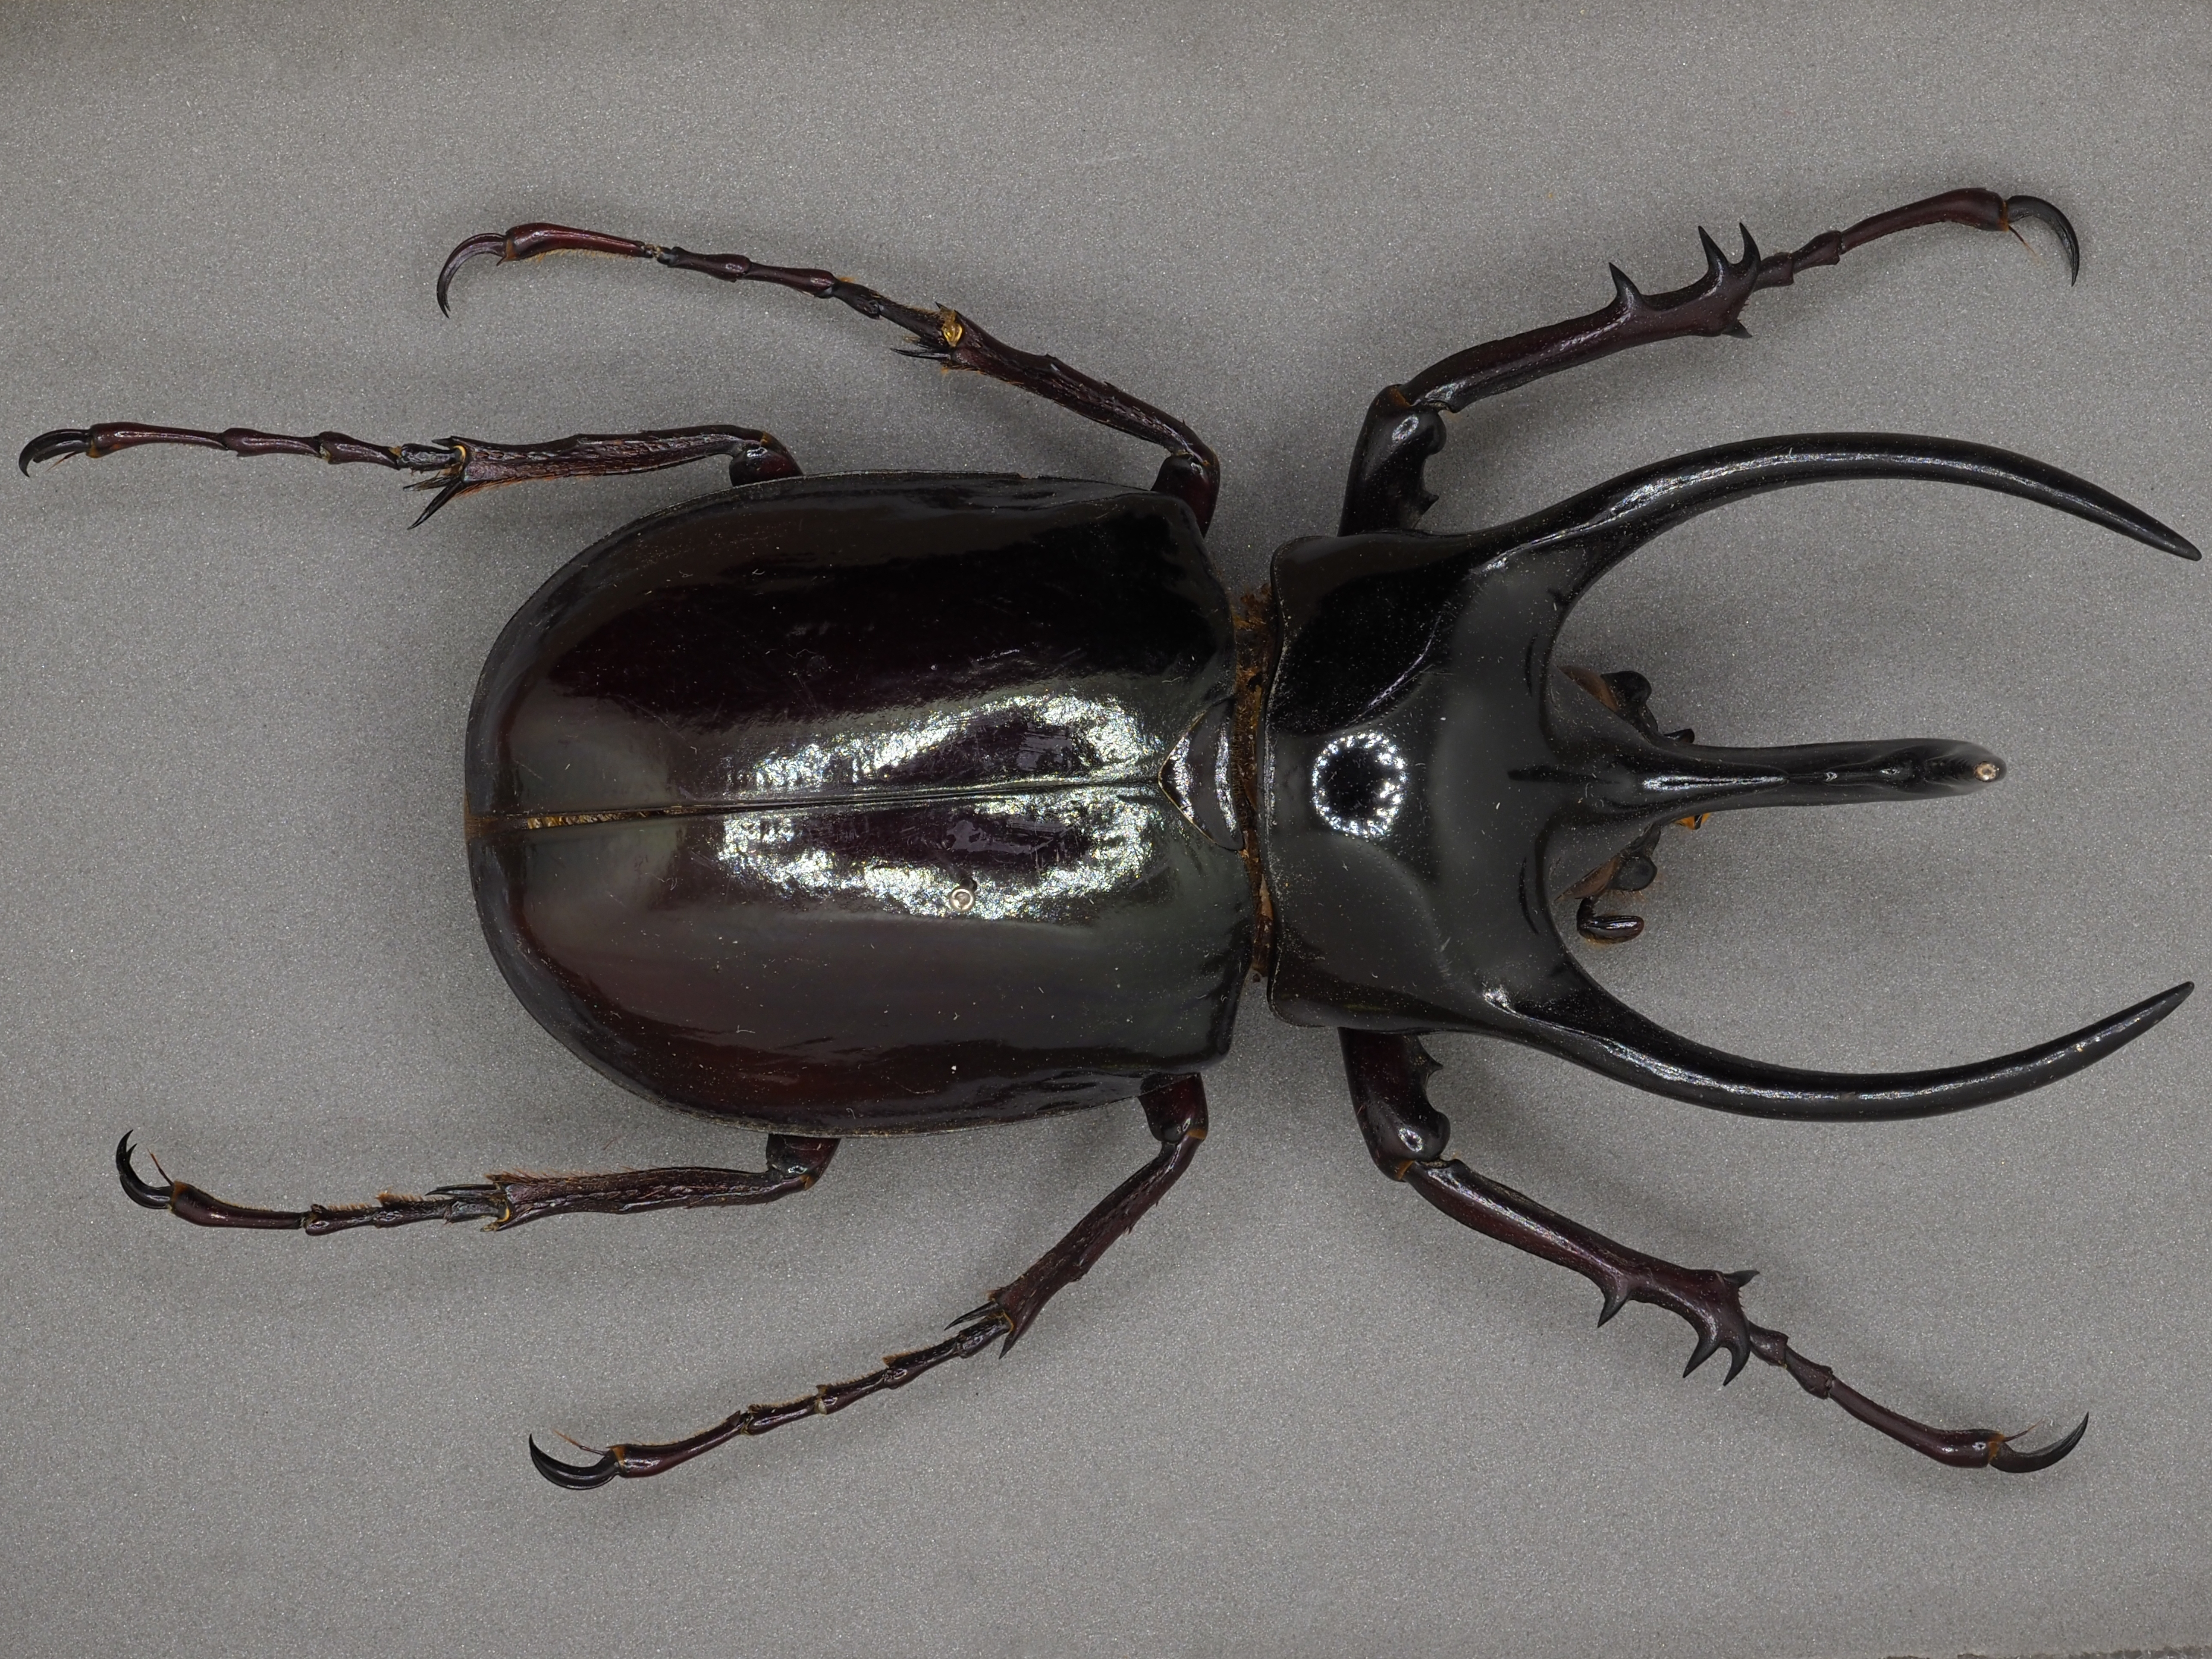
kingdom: Animalia
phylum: Arthropoda
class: Insecta
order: Coleoptera
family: Scarabaeidae
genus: Chalcosoma
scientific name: Chalcosoma chiron
